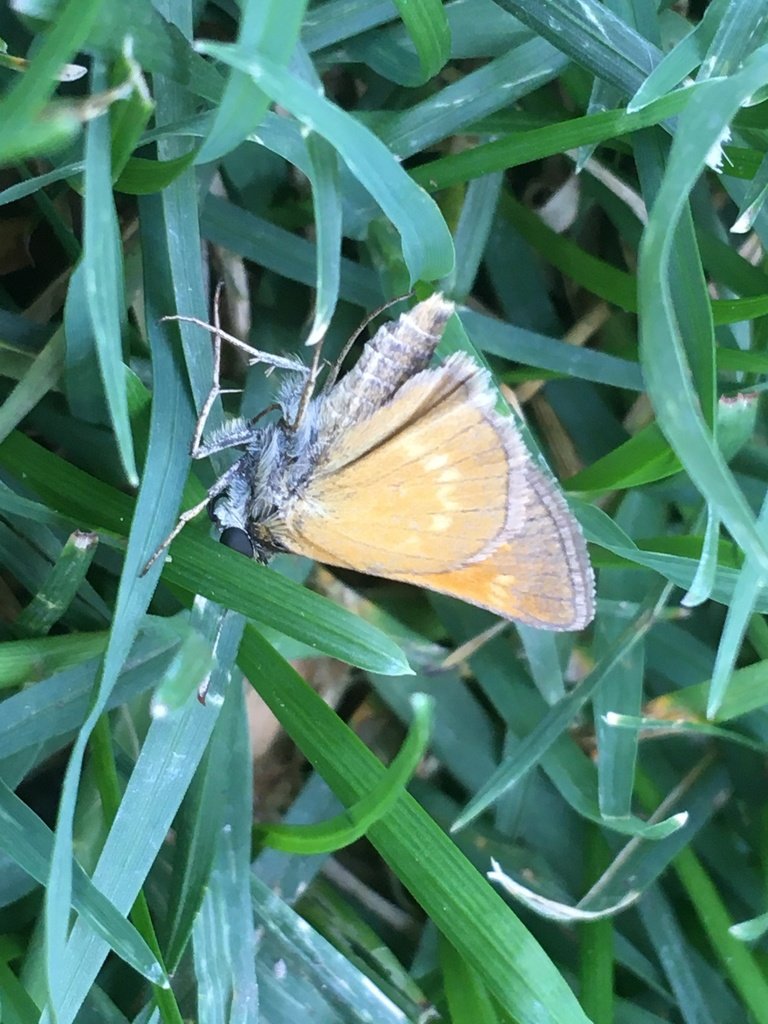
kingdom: Animalia
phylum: Arthropoda
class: Insecta
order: Lepidoptera
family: Hesperiidae
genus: Polites
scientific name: Polites themistocles
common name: Tawny-edged Skipper
